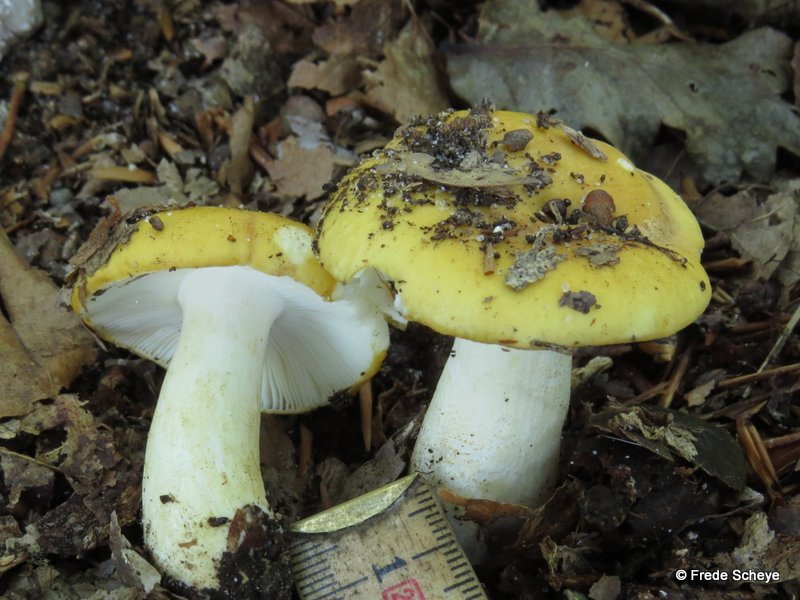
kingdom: Fungi
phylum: Basidiomycota
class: Agaricomycetes
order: Russulales
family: Russulaceae
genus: Russula
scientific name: Russula ochroleuca
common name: okkergul skørhat
